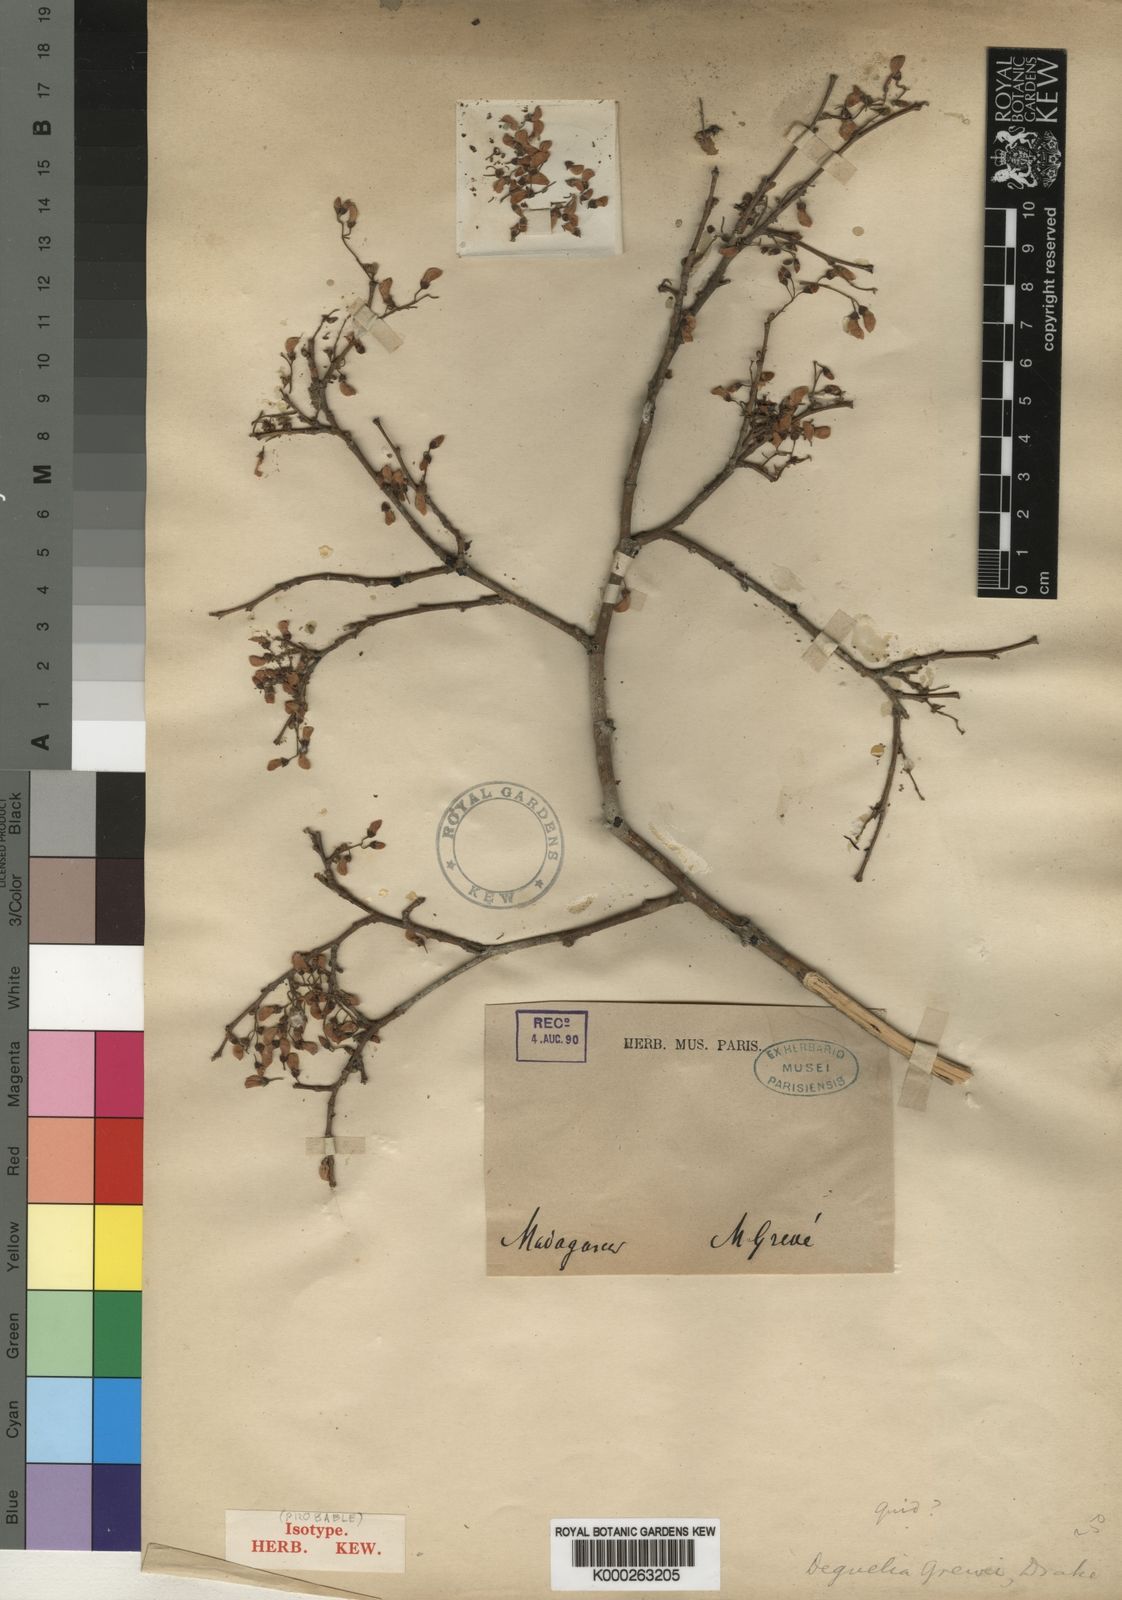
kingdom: Plantae
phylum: Tracheophyta
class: Magnoliopsida
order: Fabales
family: Fabaceae
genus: Pongamiopsis
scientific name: Pongamiopsis pervilleana
